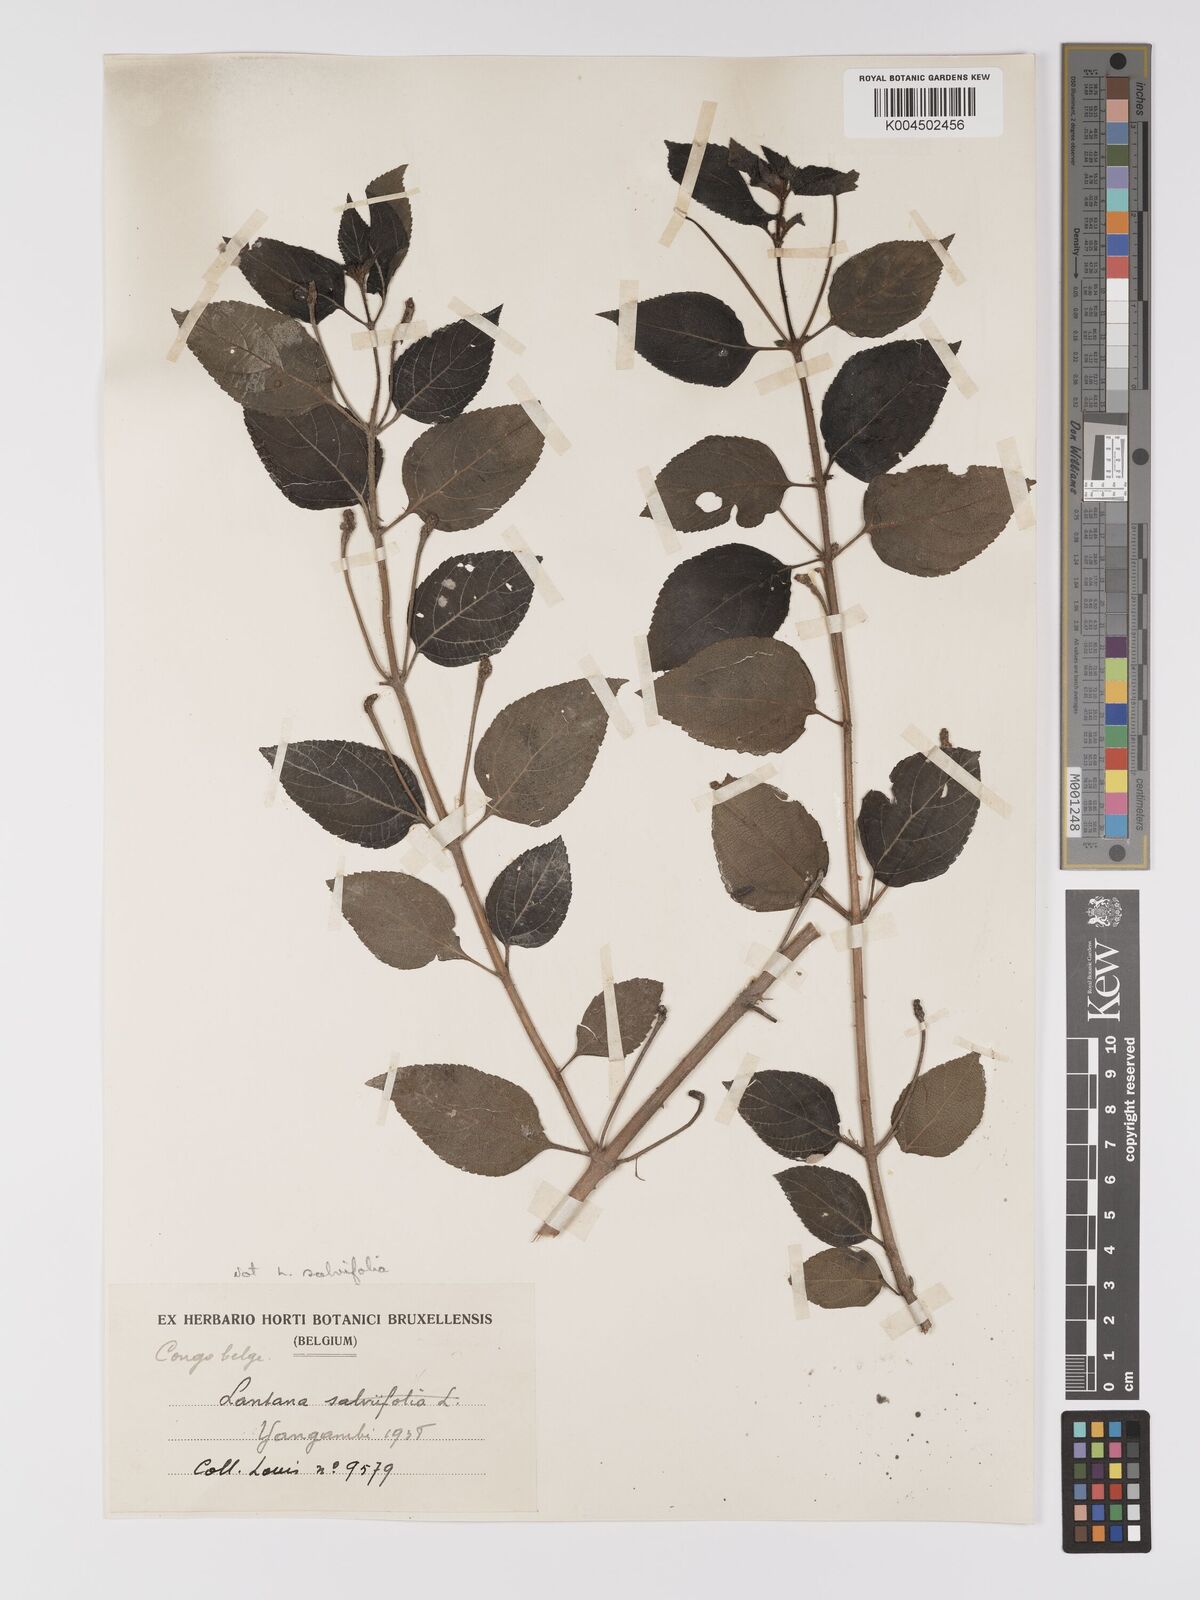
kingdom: Plantae
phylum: Tracheophyta
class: Magnoliopsida
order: Lamiales
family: Verbenaceae
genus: Lantana
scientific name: Lantana camara
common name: Lantana
